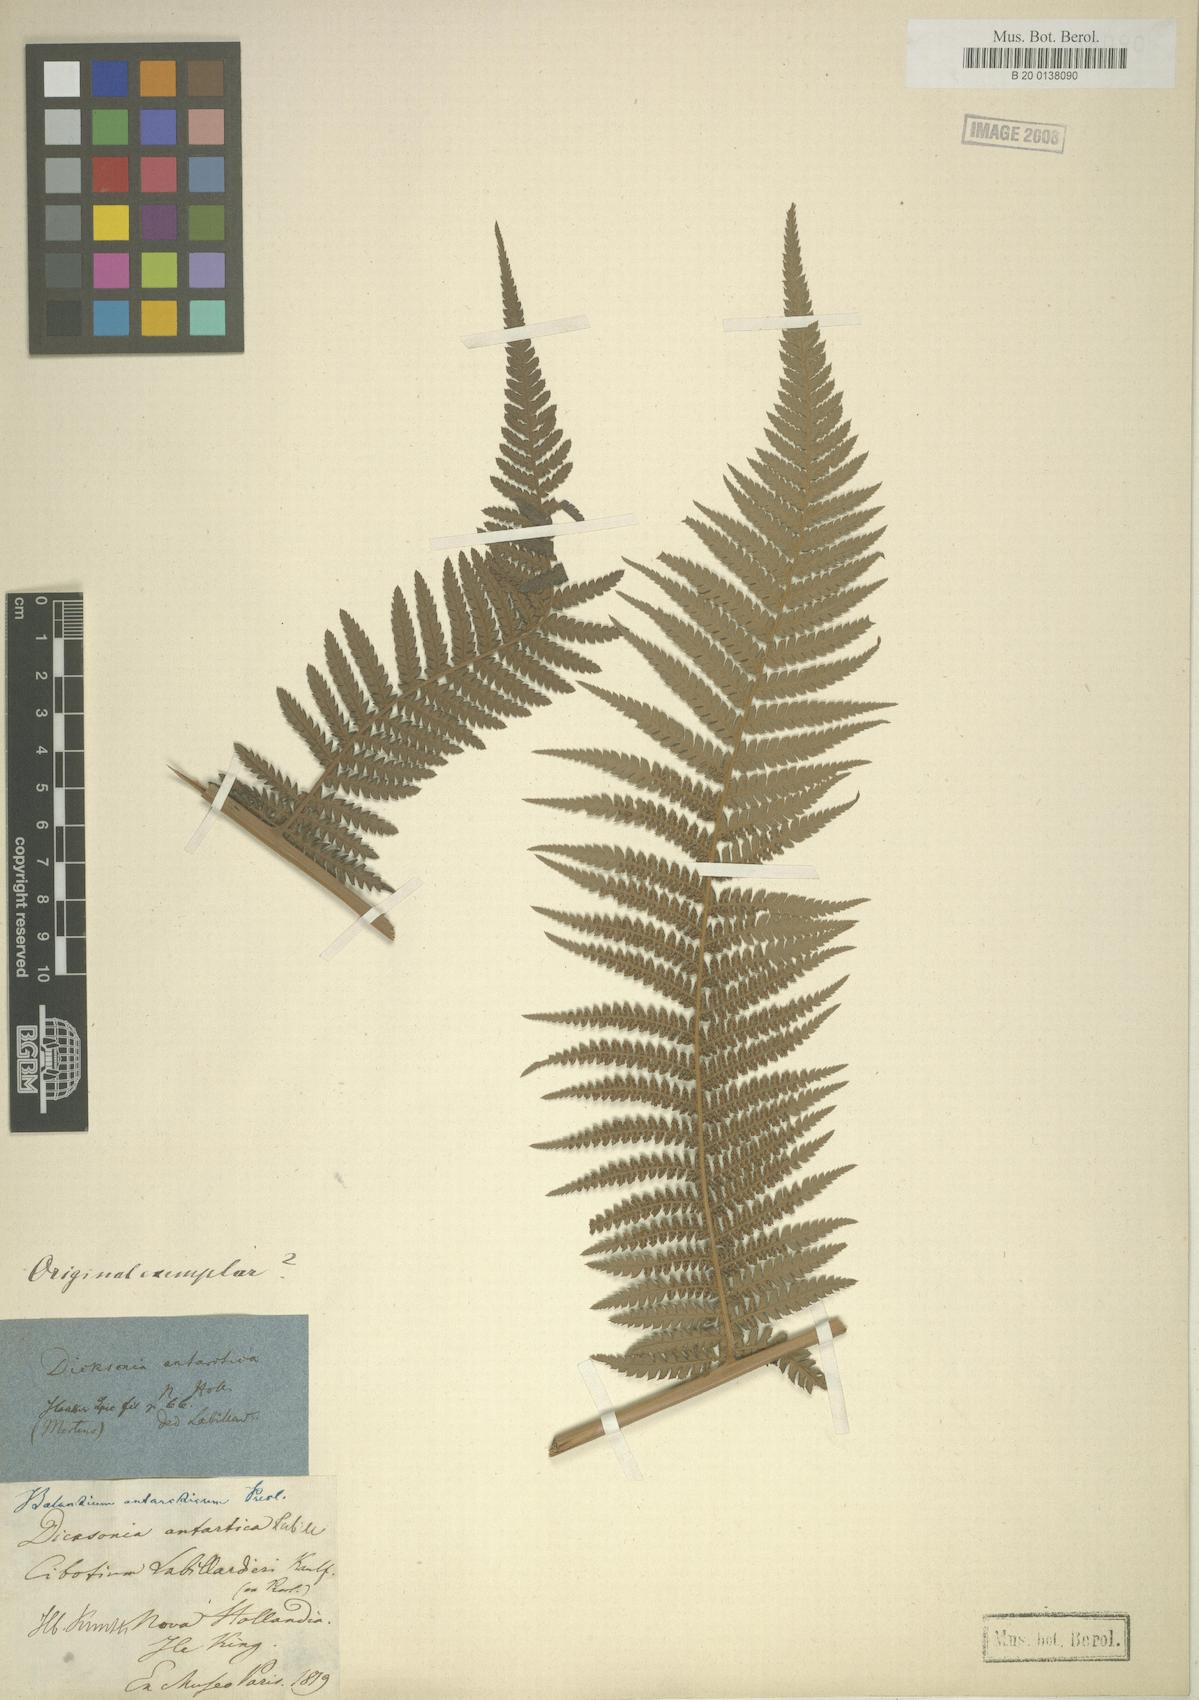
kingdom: Plantae
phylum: Tracheophyta
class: Polypodiopsida
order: Cyatheales
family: Dicksoniaceae
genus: Dicksonia
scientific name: Dicksonia antarctica
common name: Australian treefern
